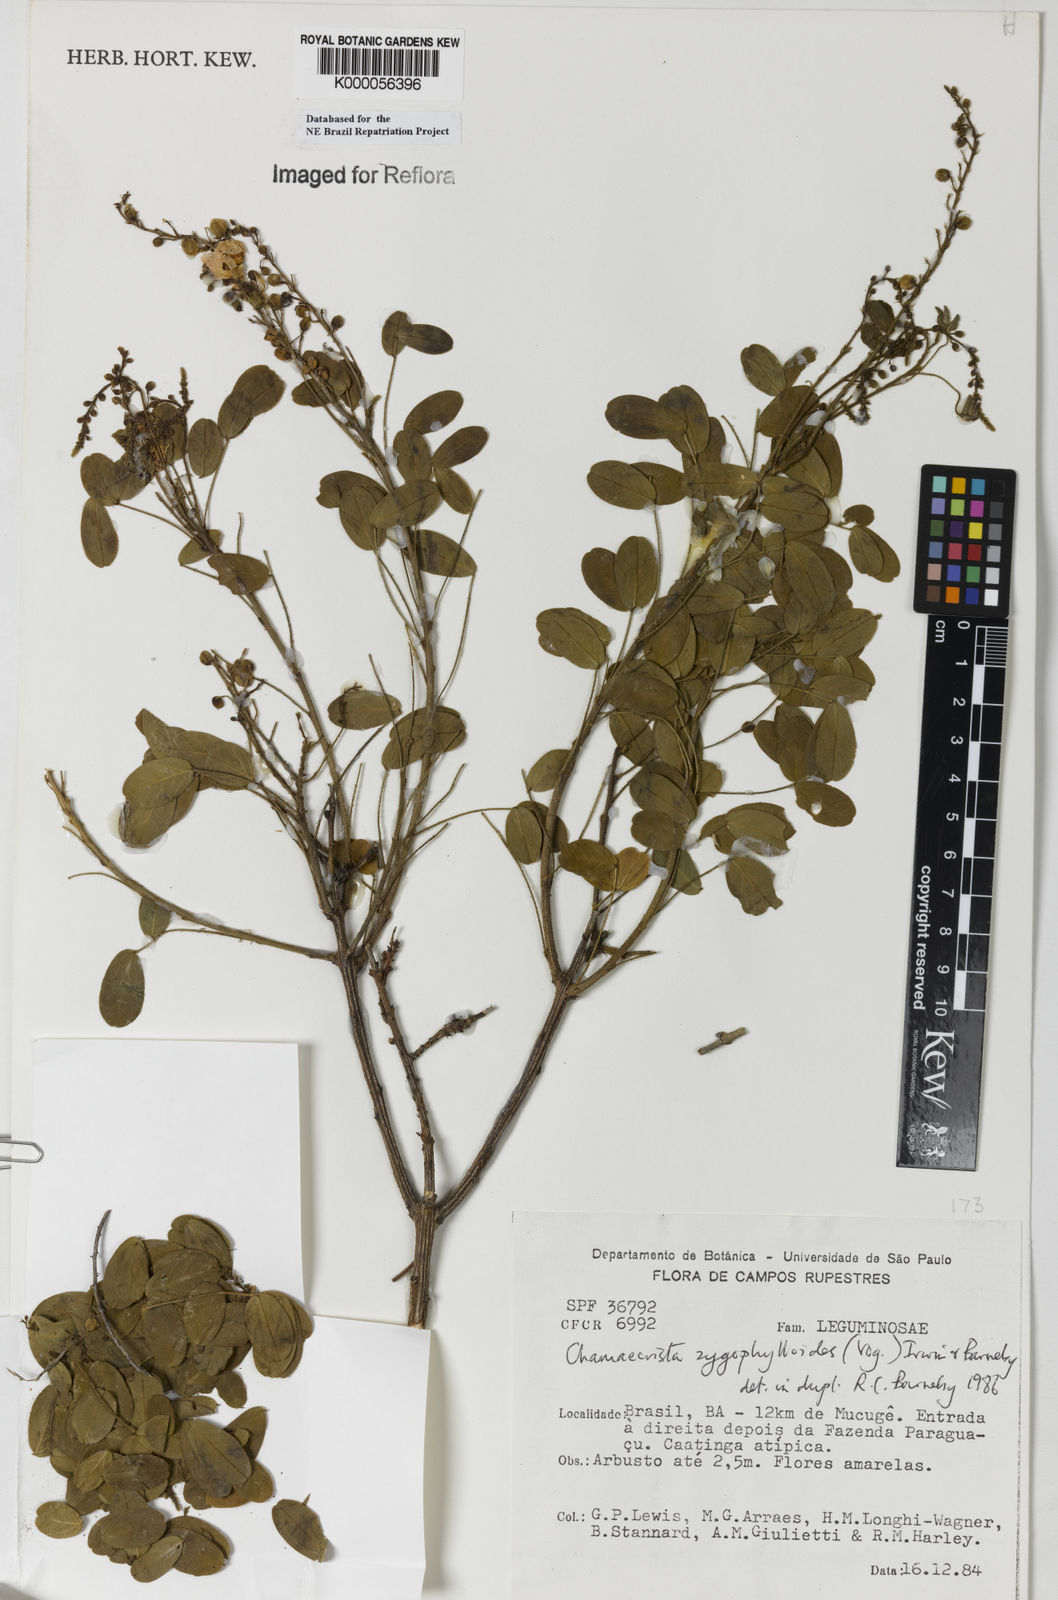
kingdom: Plantae
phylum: Tracheophyta
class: Magnoliopsida
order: Fabales
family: Fabaceae
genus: Chamaecrista
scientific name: Chamaecrista zygophylloides
